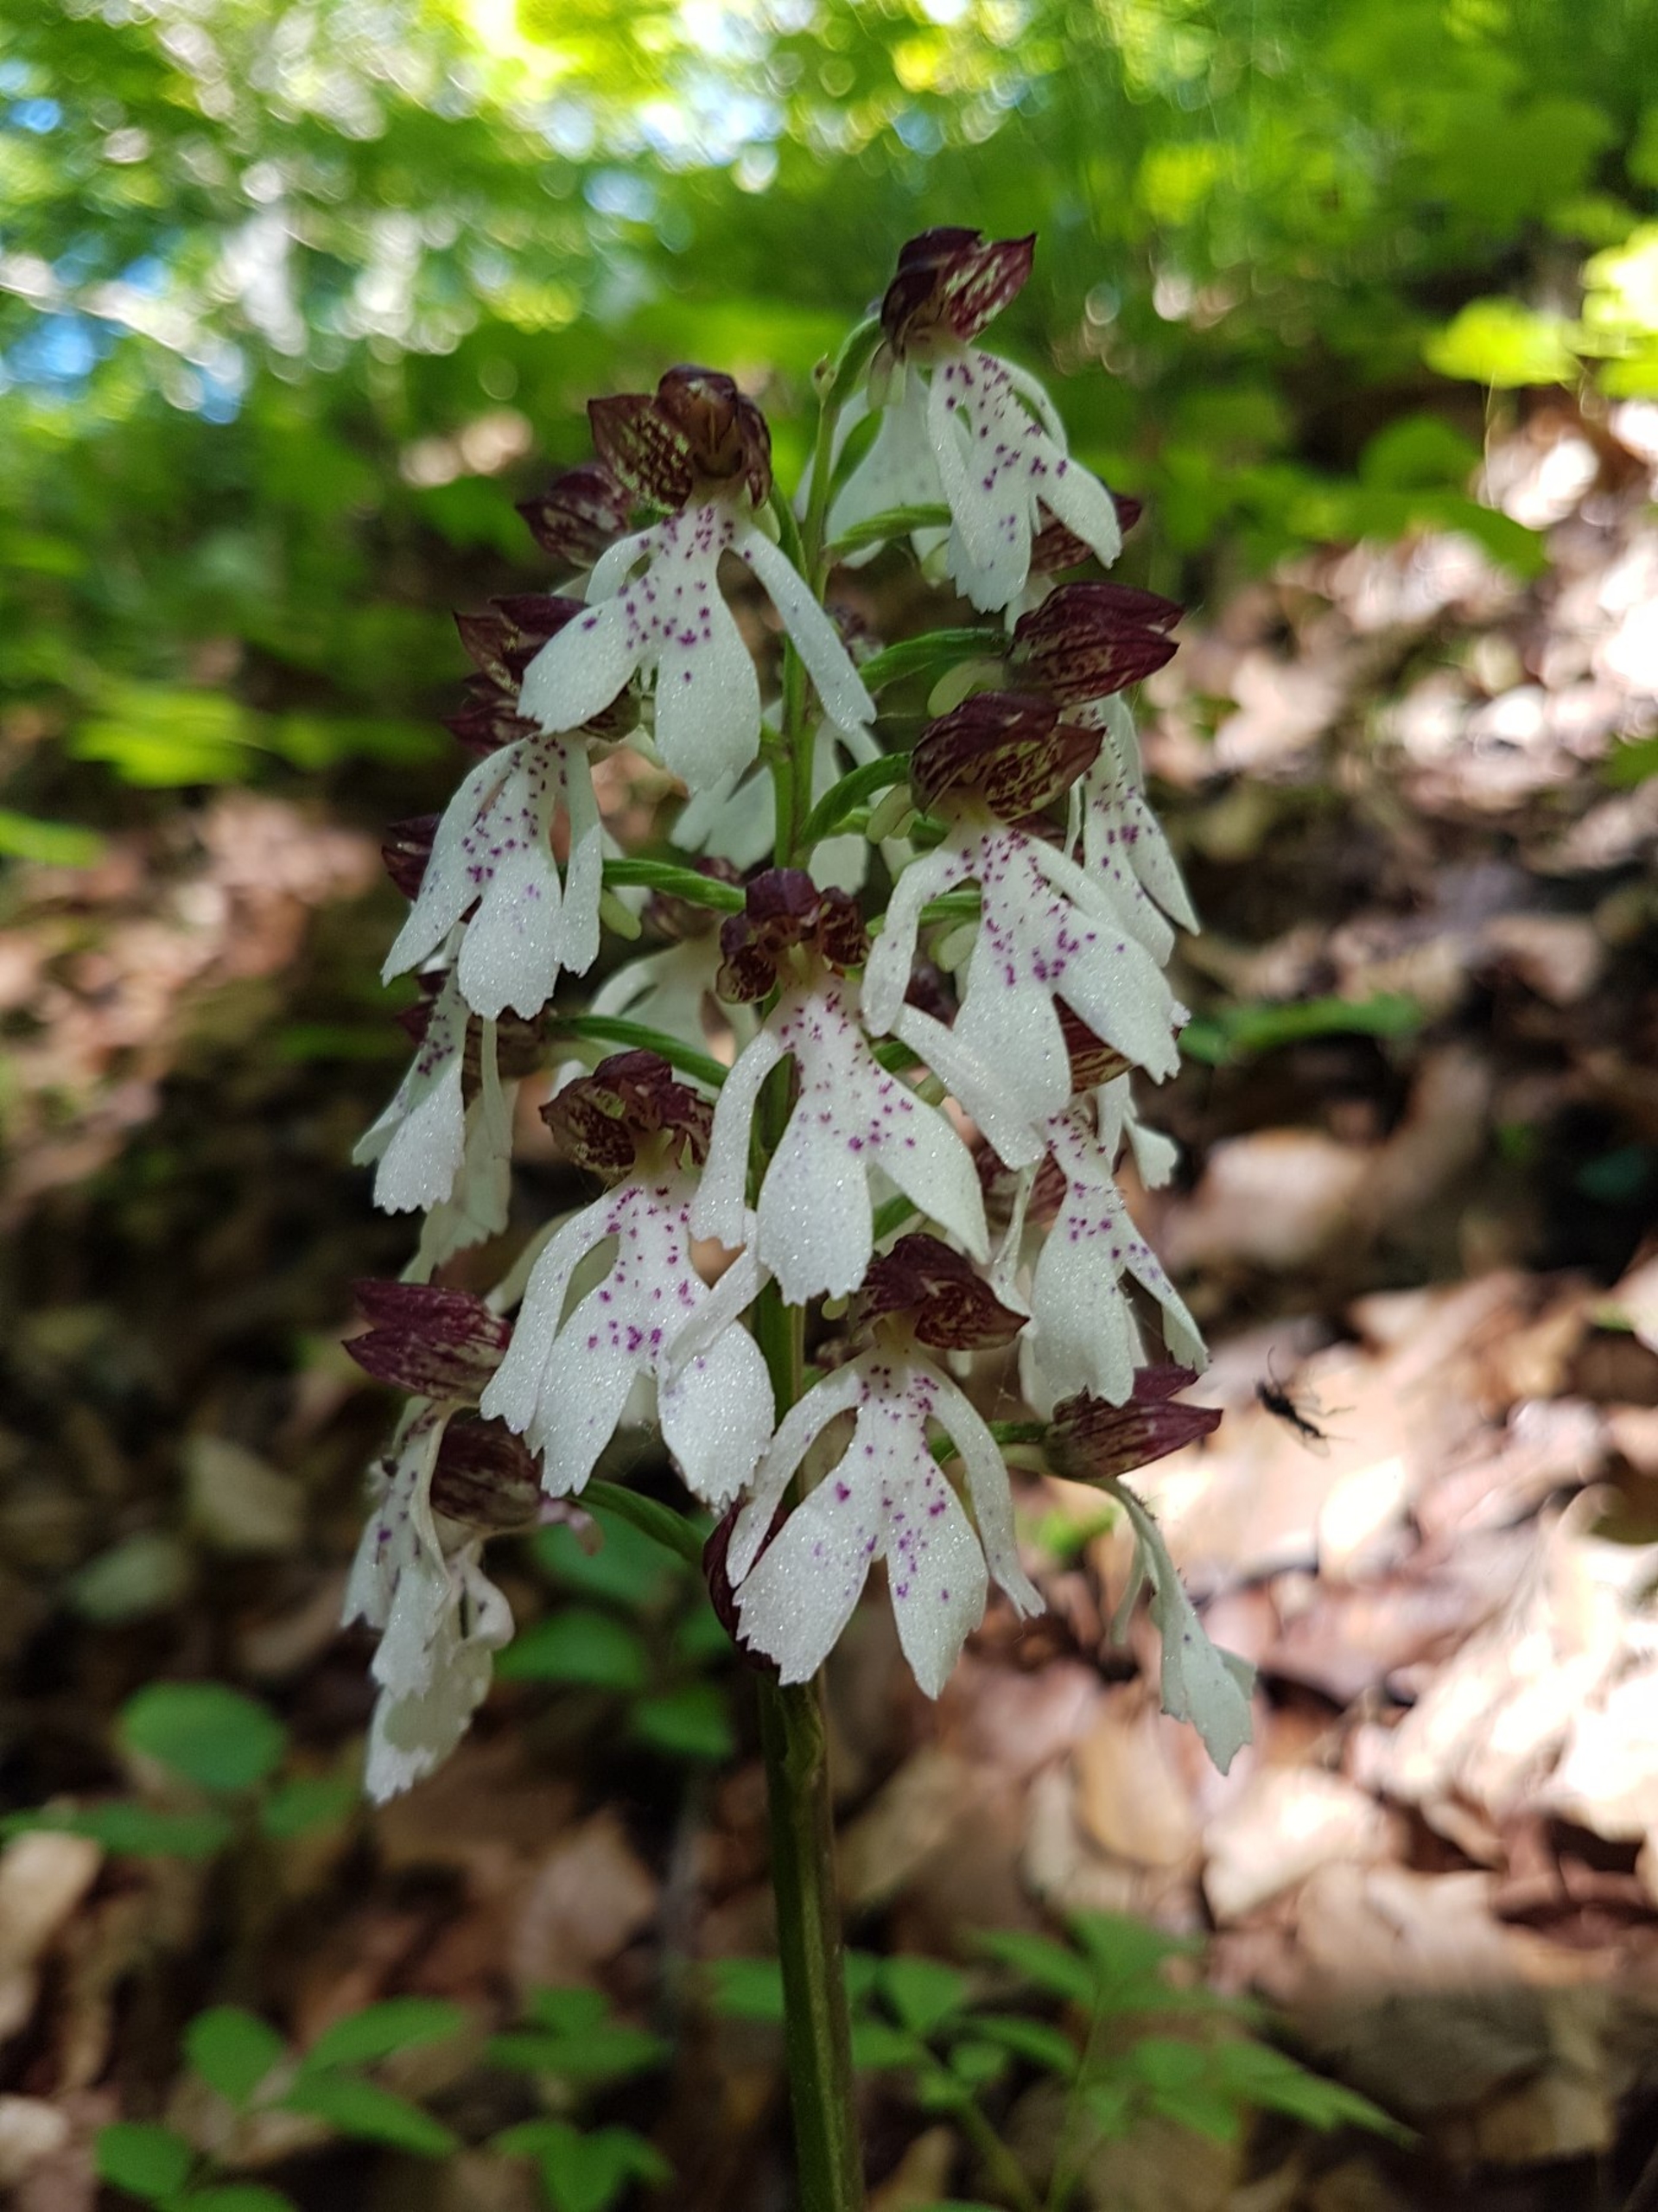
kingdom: Plantae
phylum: Tracheophyta
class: Liliopsida
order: Asparagales
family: Orchidaceae
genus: Orchis
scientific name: Orchis purpurea
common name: Stor gøgeurt
